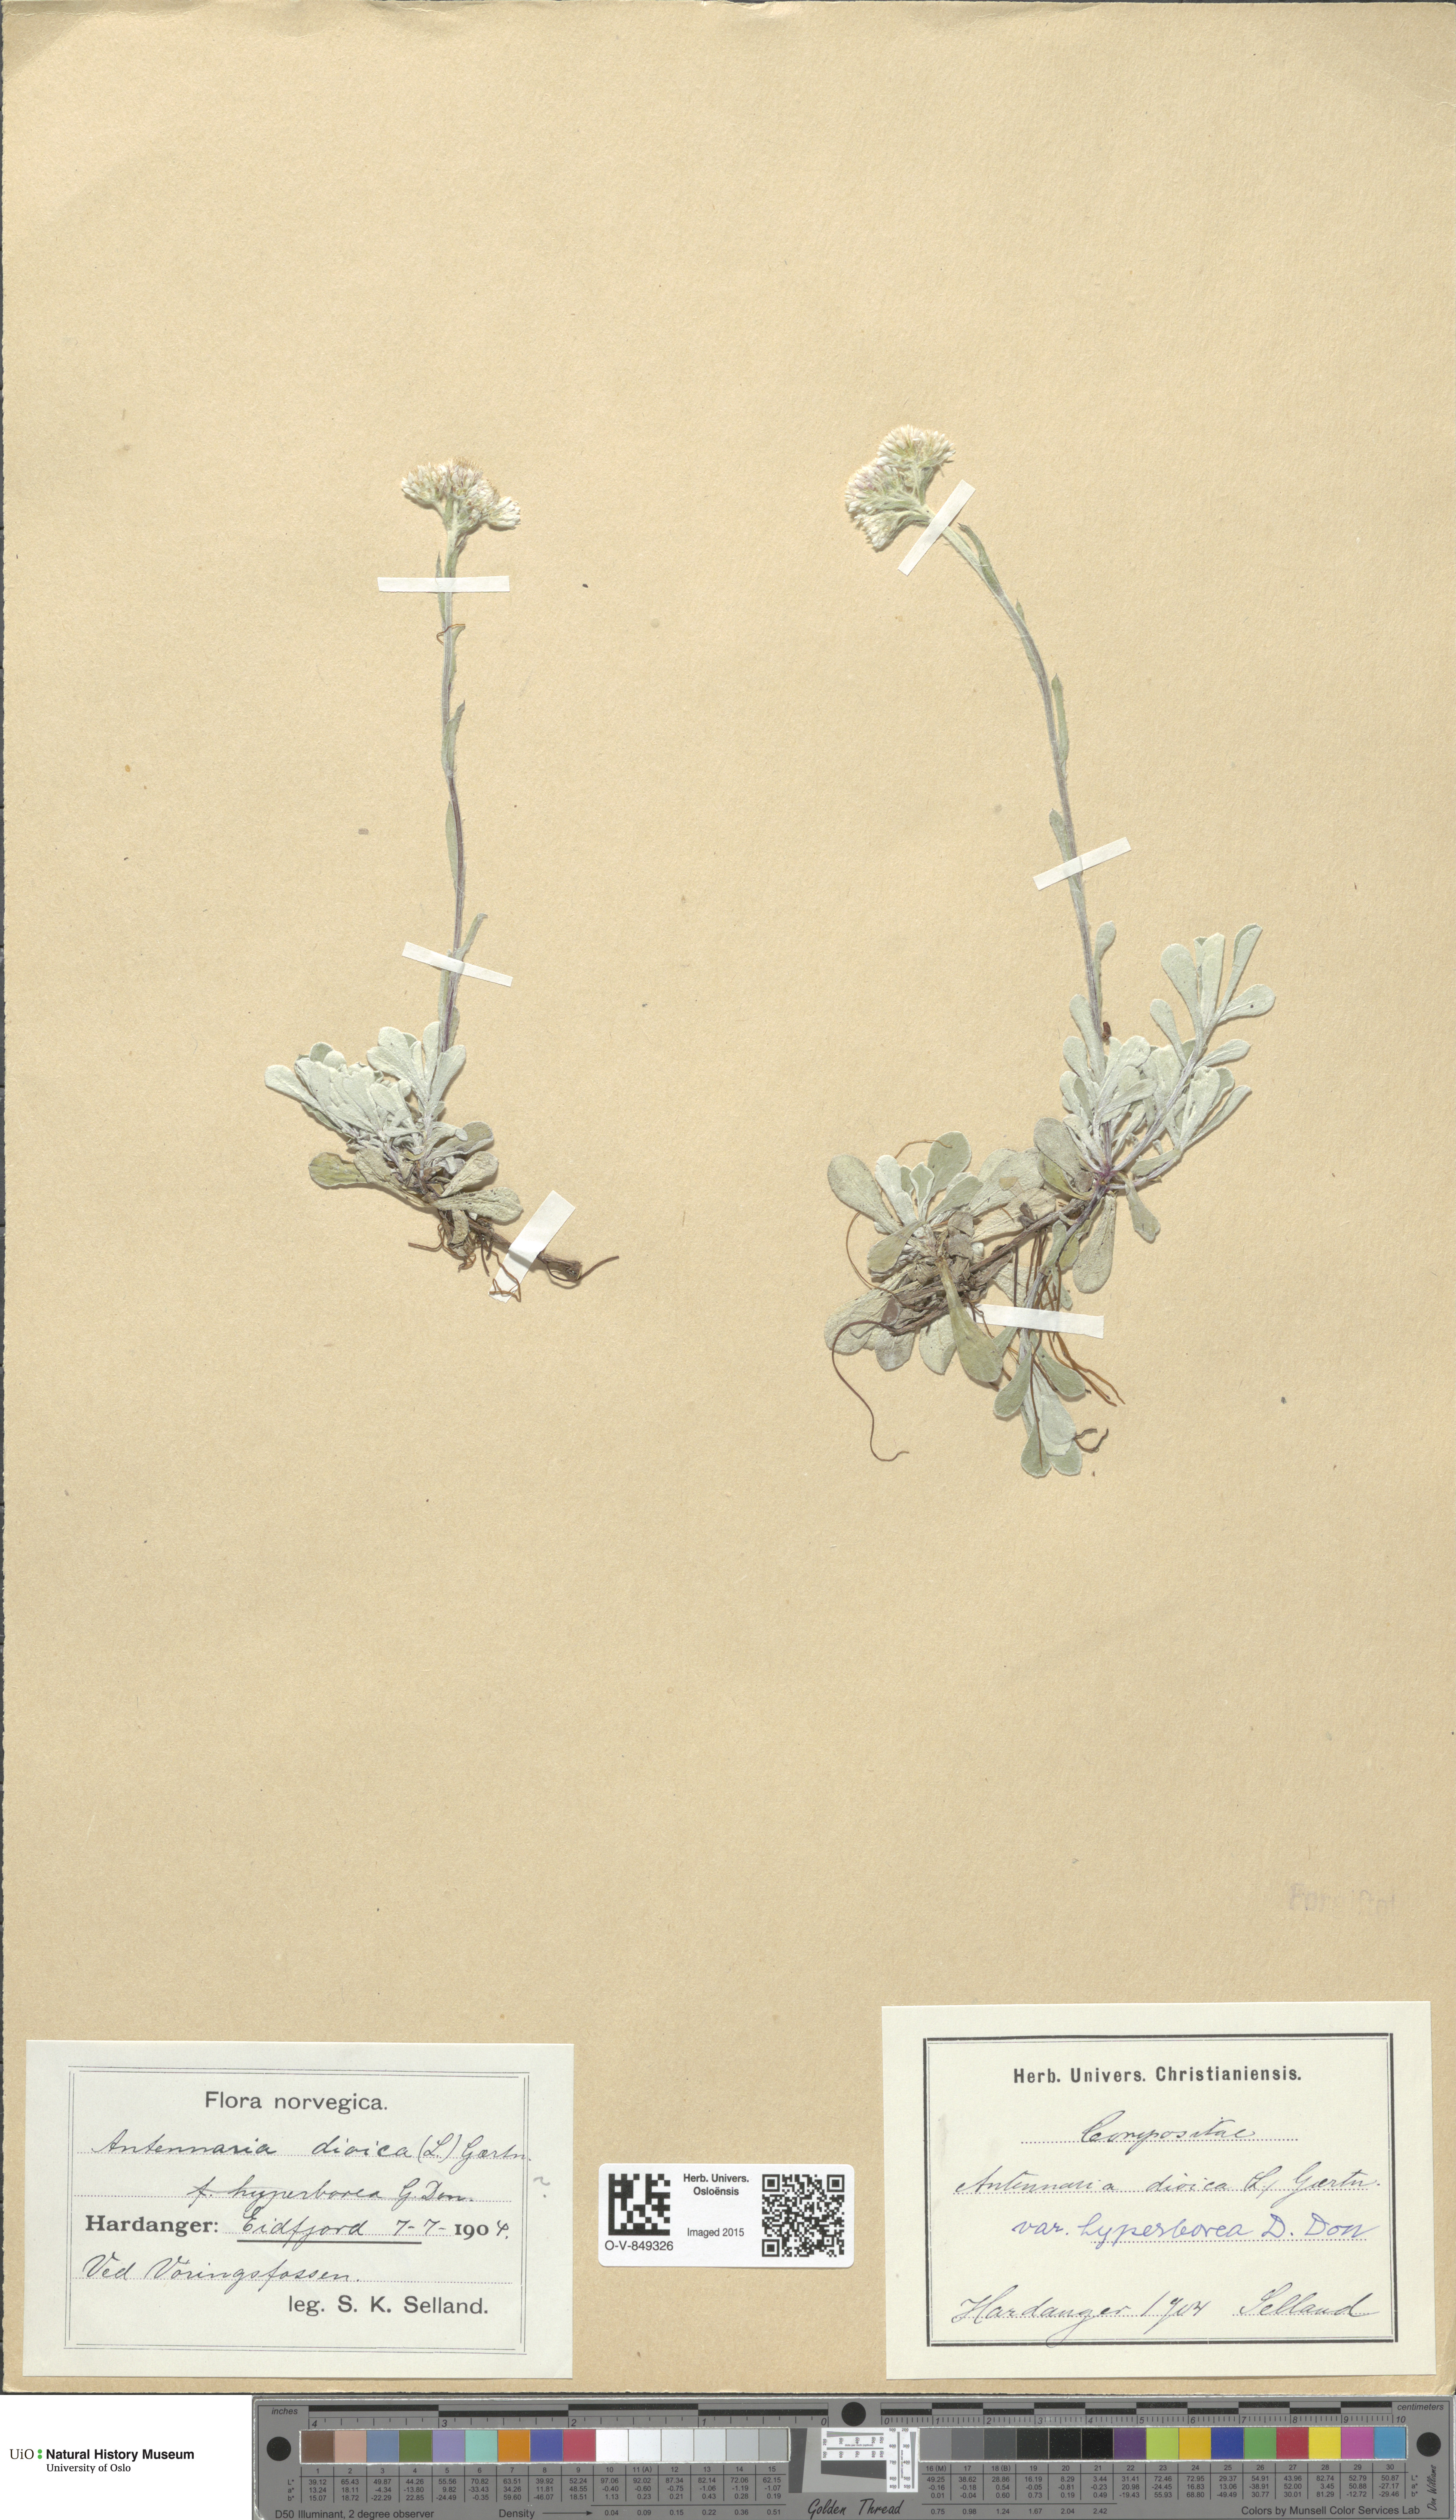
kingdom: Plantae
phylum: Tracheophyta
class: Magnoliopsida
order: Asterales
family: Asteraceae
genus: Antennaria
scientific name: Antennaria dioica
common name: Mountain everlasting
